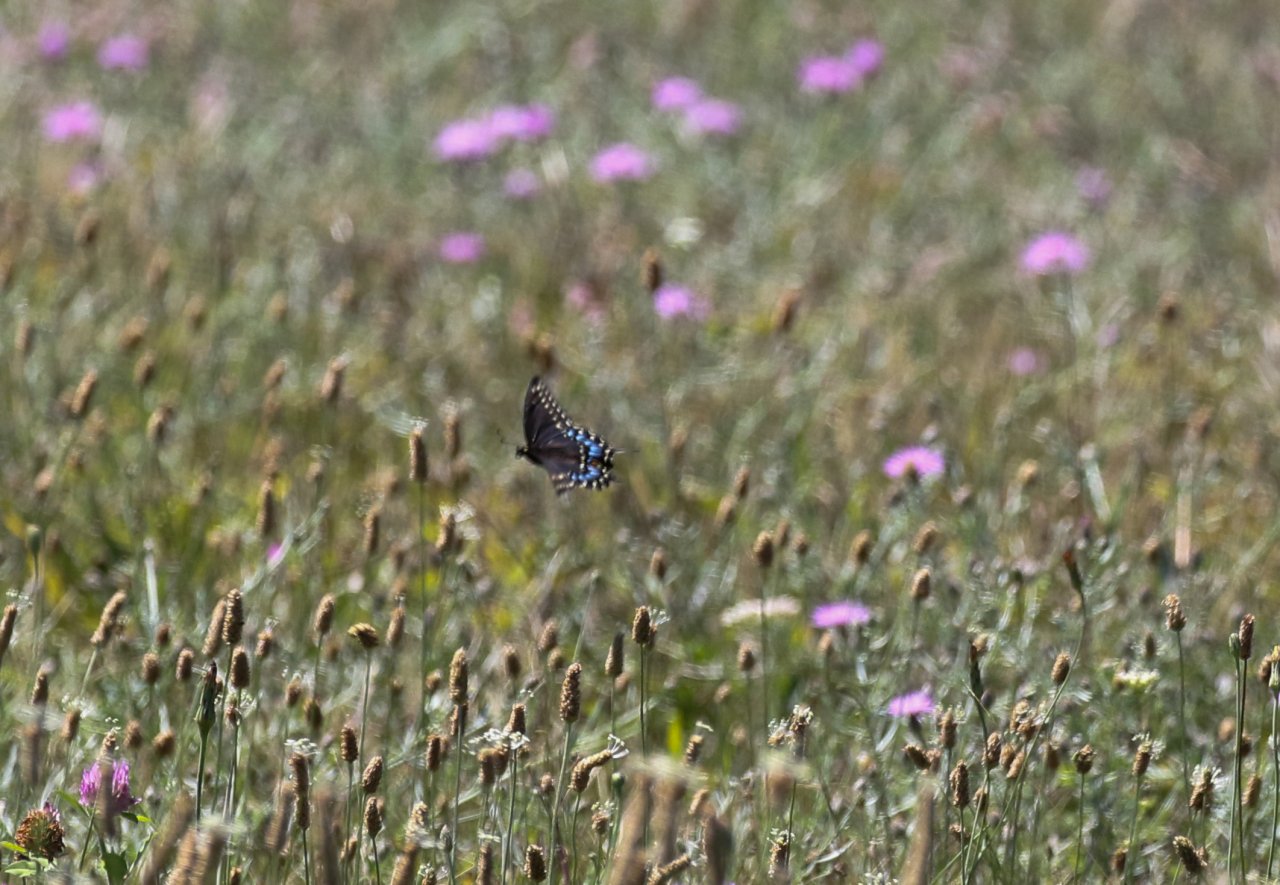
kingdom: Animalia
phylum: Arthropoda
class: Insecta
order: Lepidoptera
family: Papilionidae
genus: Papilio
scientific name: Papilio
